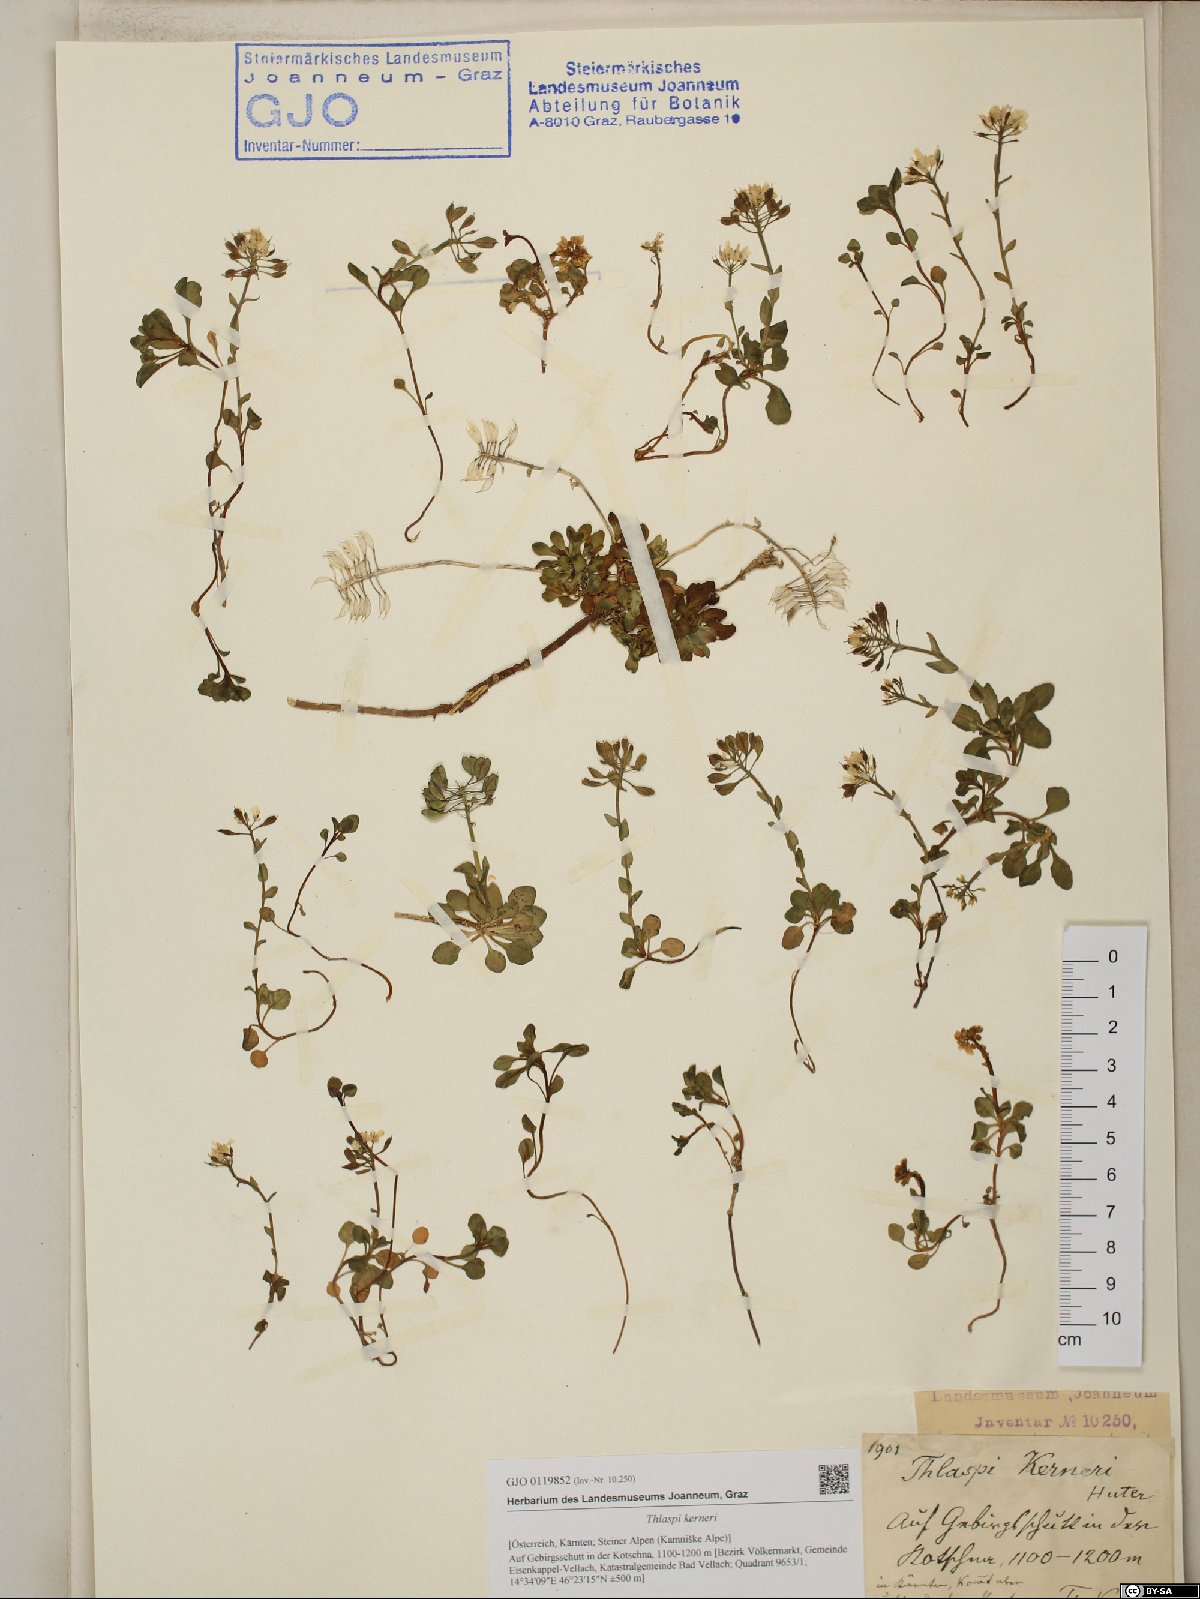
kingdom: Plantae
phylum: Tracheophyta
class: Magnoliopsida
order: Brassicales
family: Brassicaceae
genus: Noccaea
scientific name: Noccaea minima
